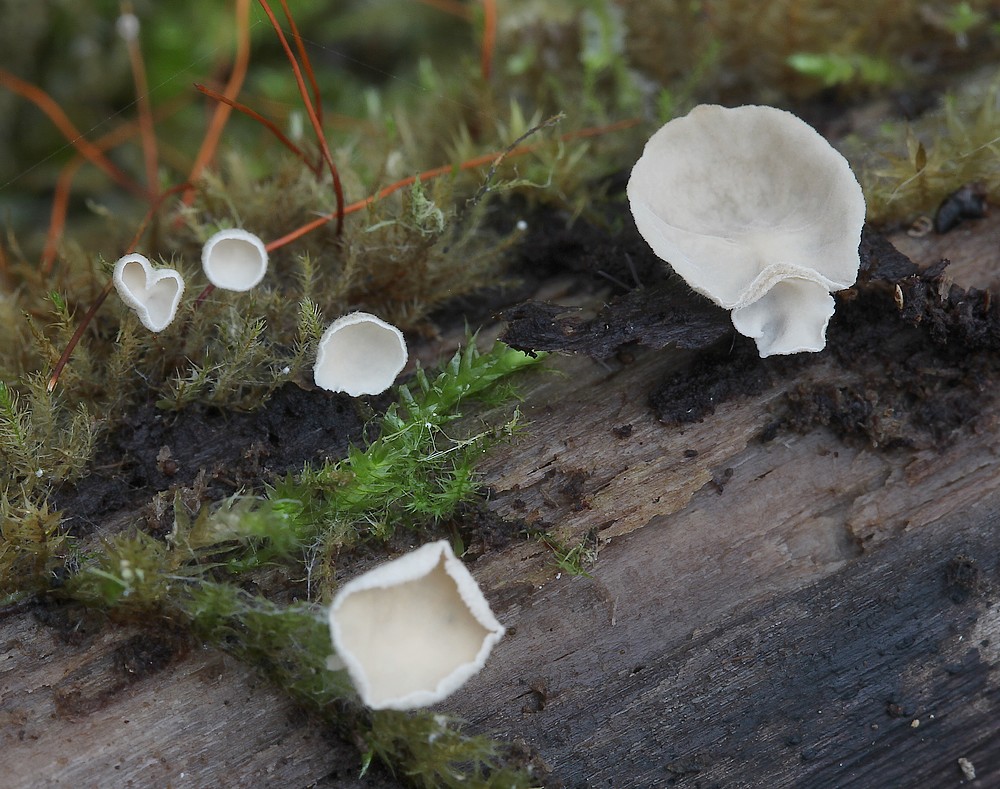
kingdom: Fungi
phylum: Basidiomycota
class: Agaricomycetes
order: Agaricales
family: Hygrophoraceae
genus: Arrhenia
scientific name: Arrhenia retiruga
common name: lille fontænehat
